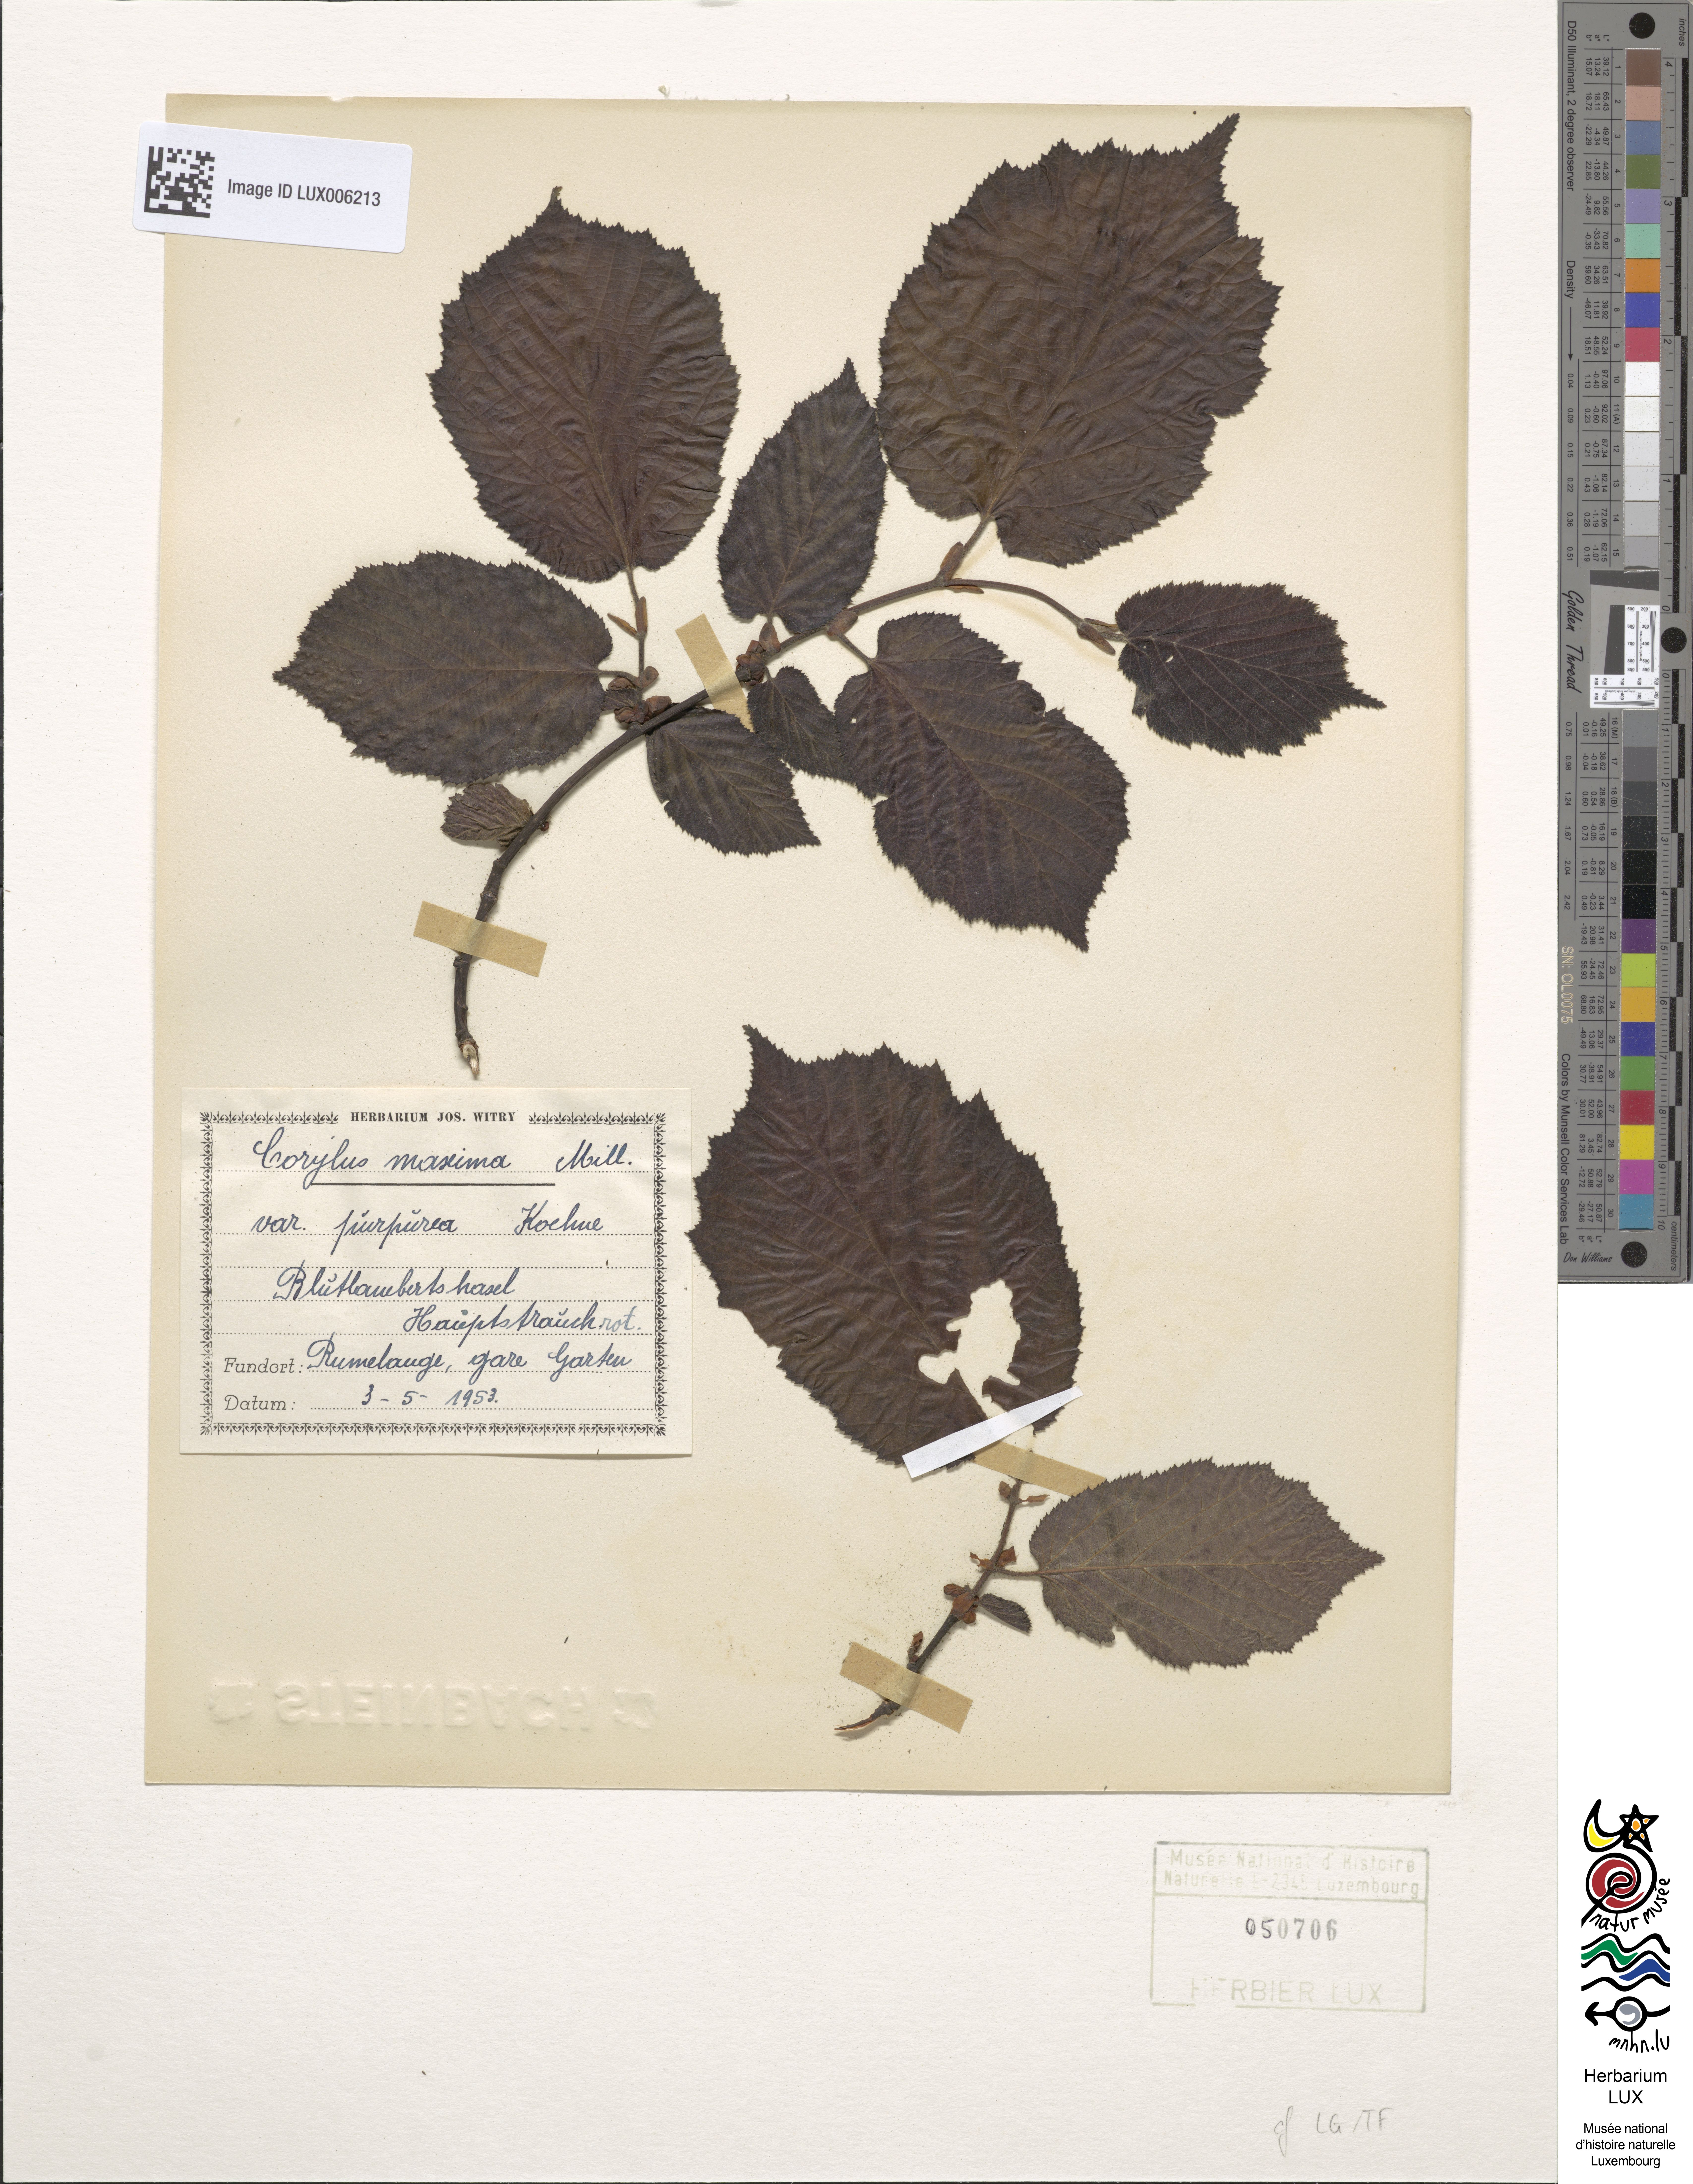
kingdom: Plantae
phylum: Tracheophyta
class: Magnoliopsida
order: Fagales
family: Betulaceae
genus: Corylus
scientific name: Corylus maxima
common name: Filbert
